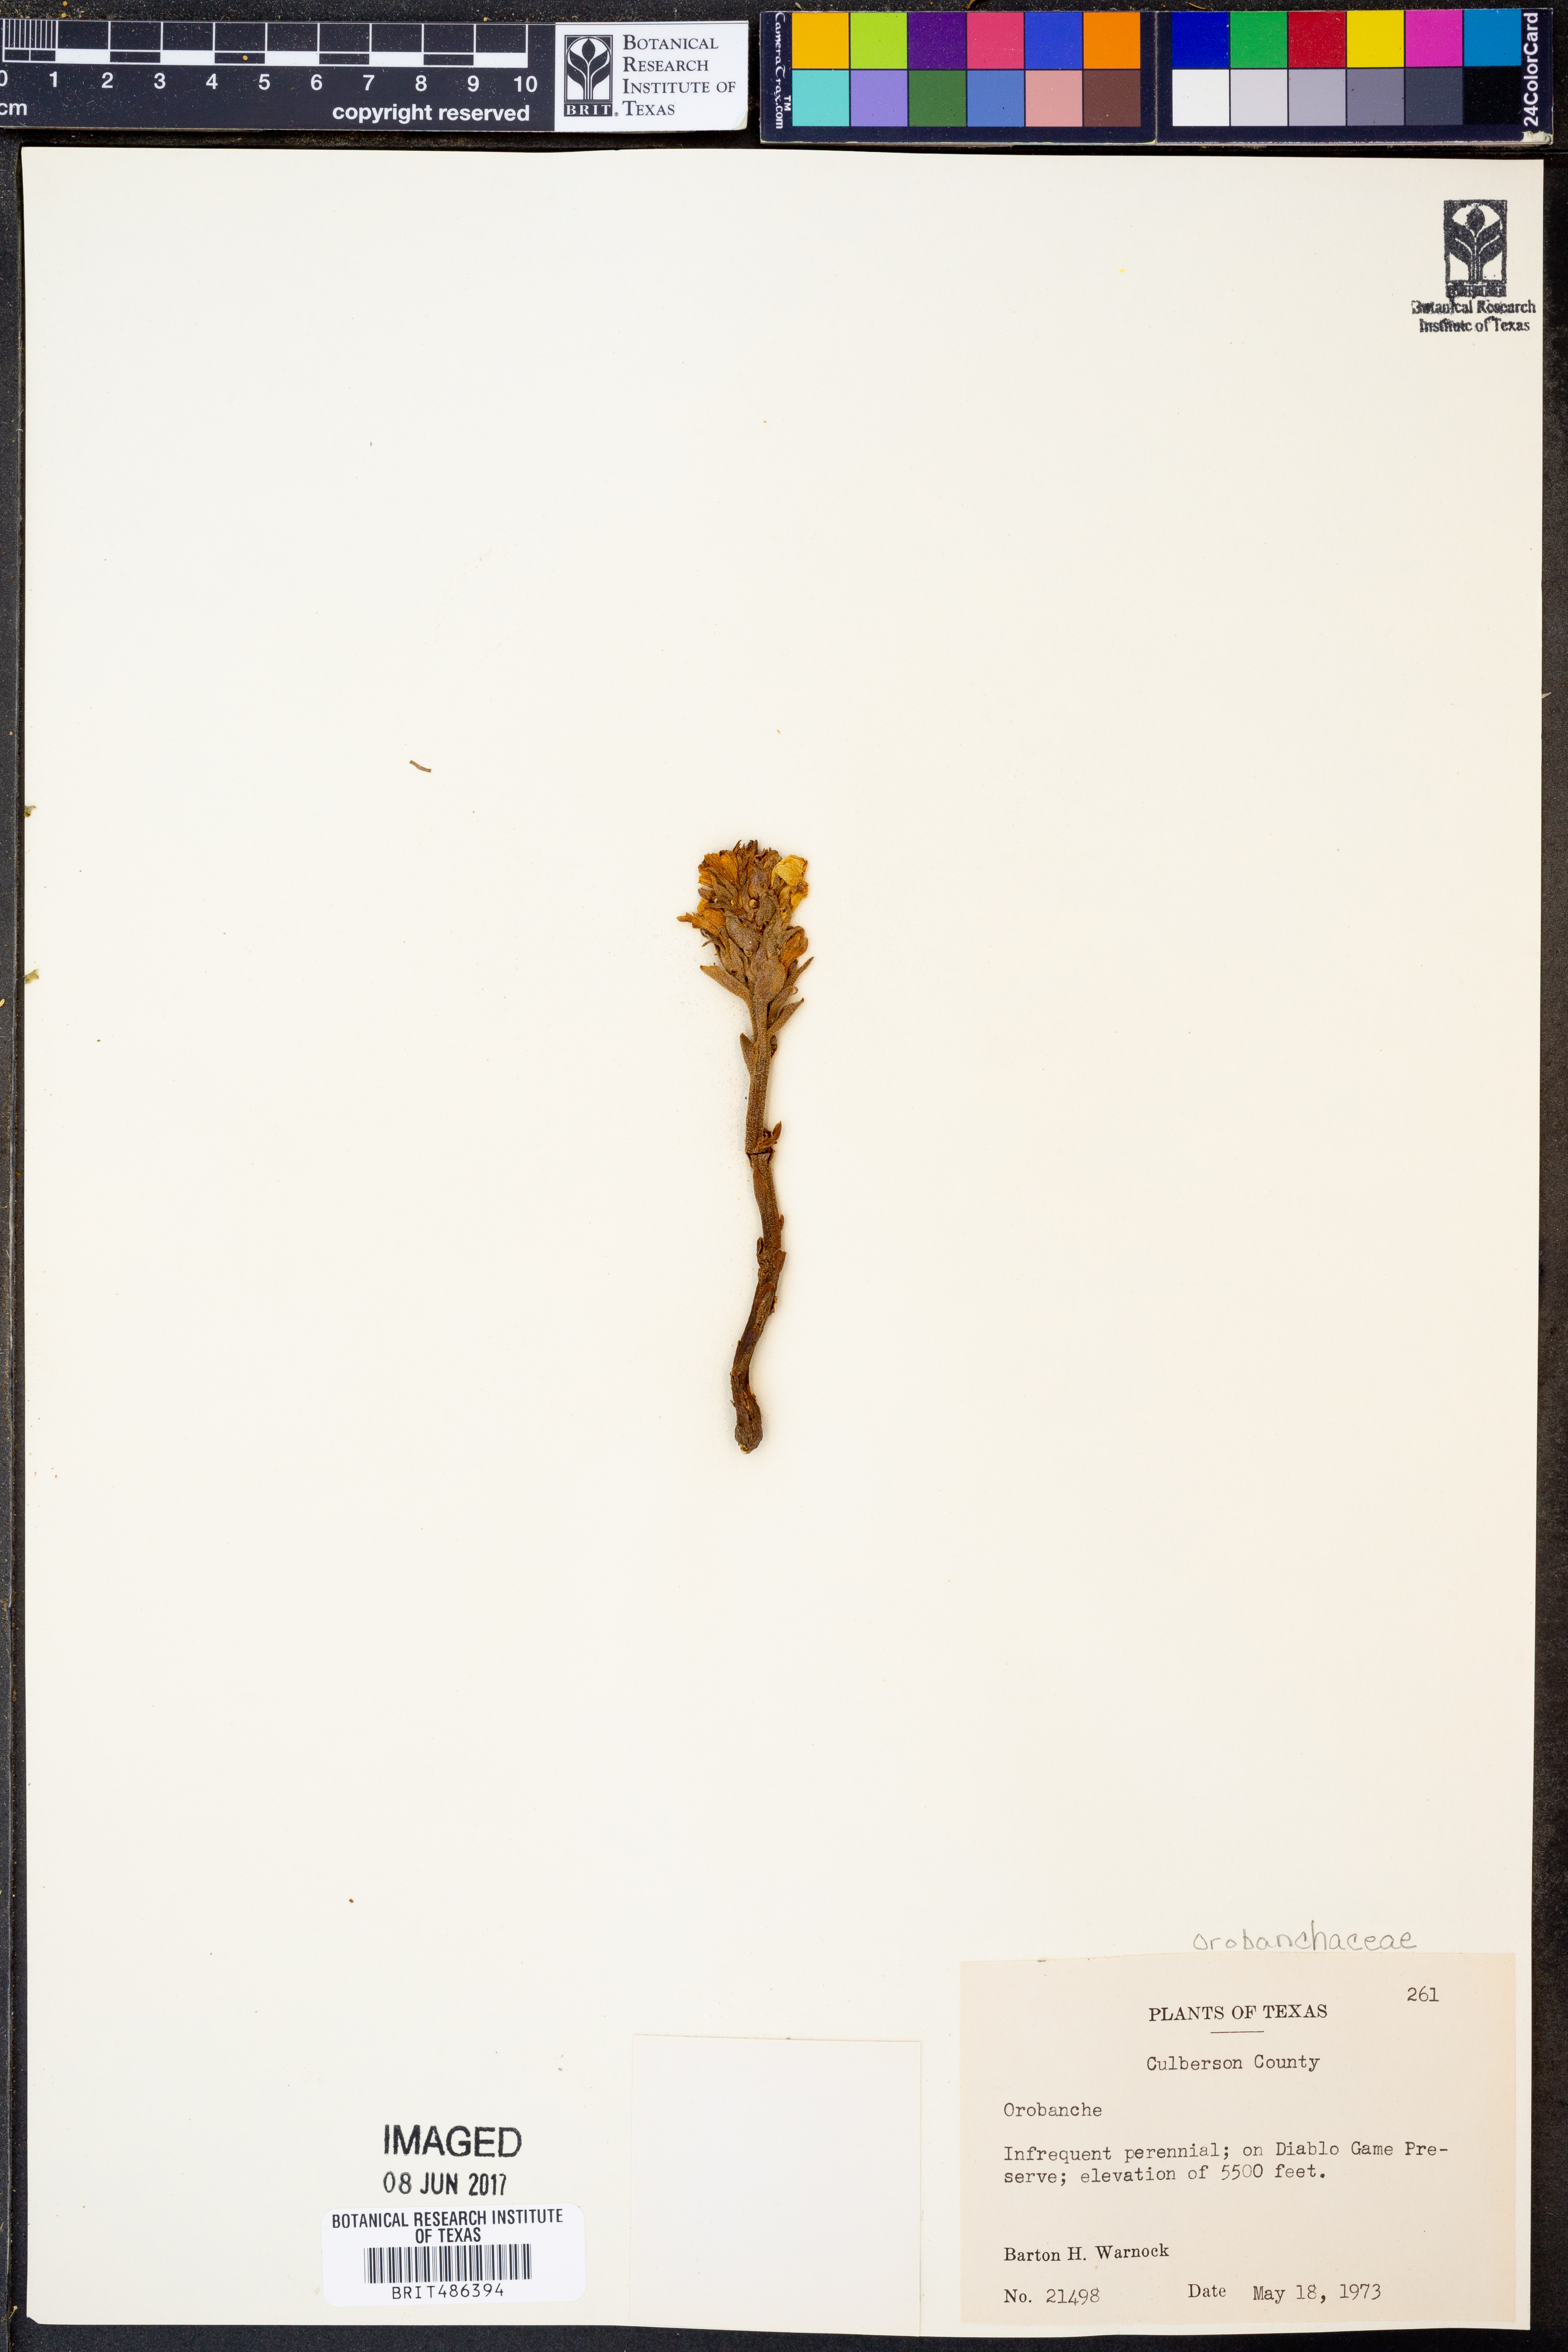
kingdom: Plantae
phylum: Tracheophyta
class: Magnoliopsida
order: Lamiales
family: Orobanchaceae
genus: Orobanche
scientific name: Orobanche
